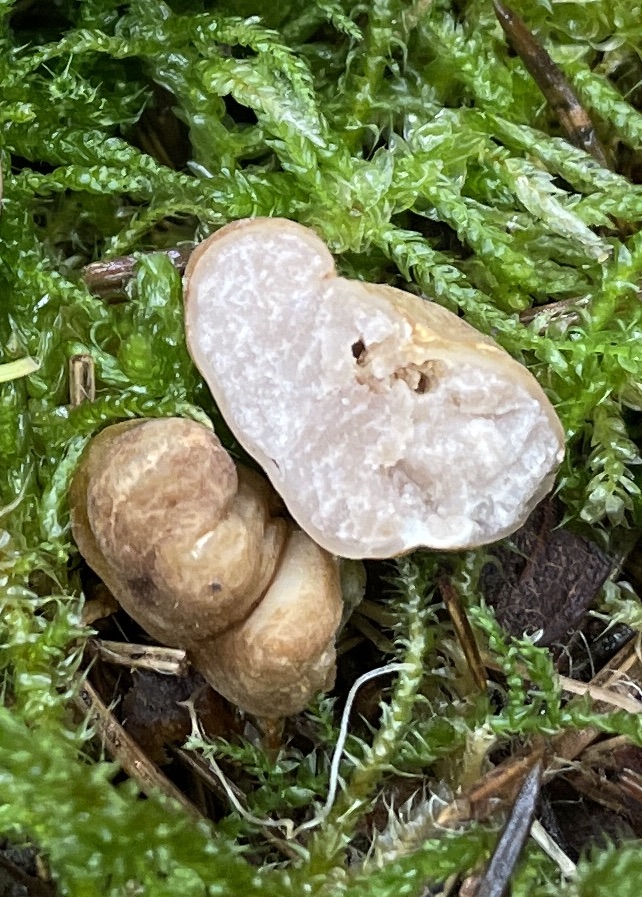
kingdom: Fungi
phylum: Ascomycota
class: Pezizomycetes
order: Pezizales
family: Tuberaceae
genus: Tuber
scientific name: Tuber
